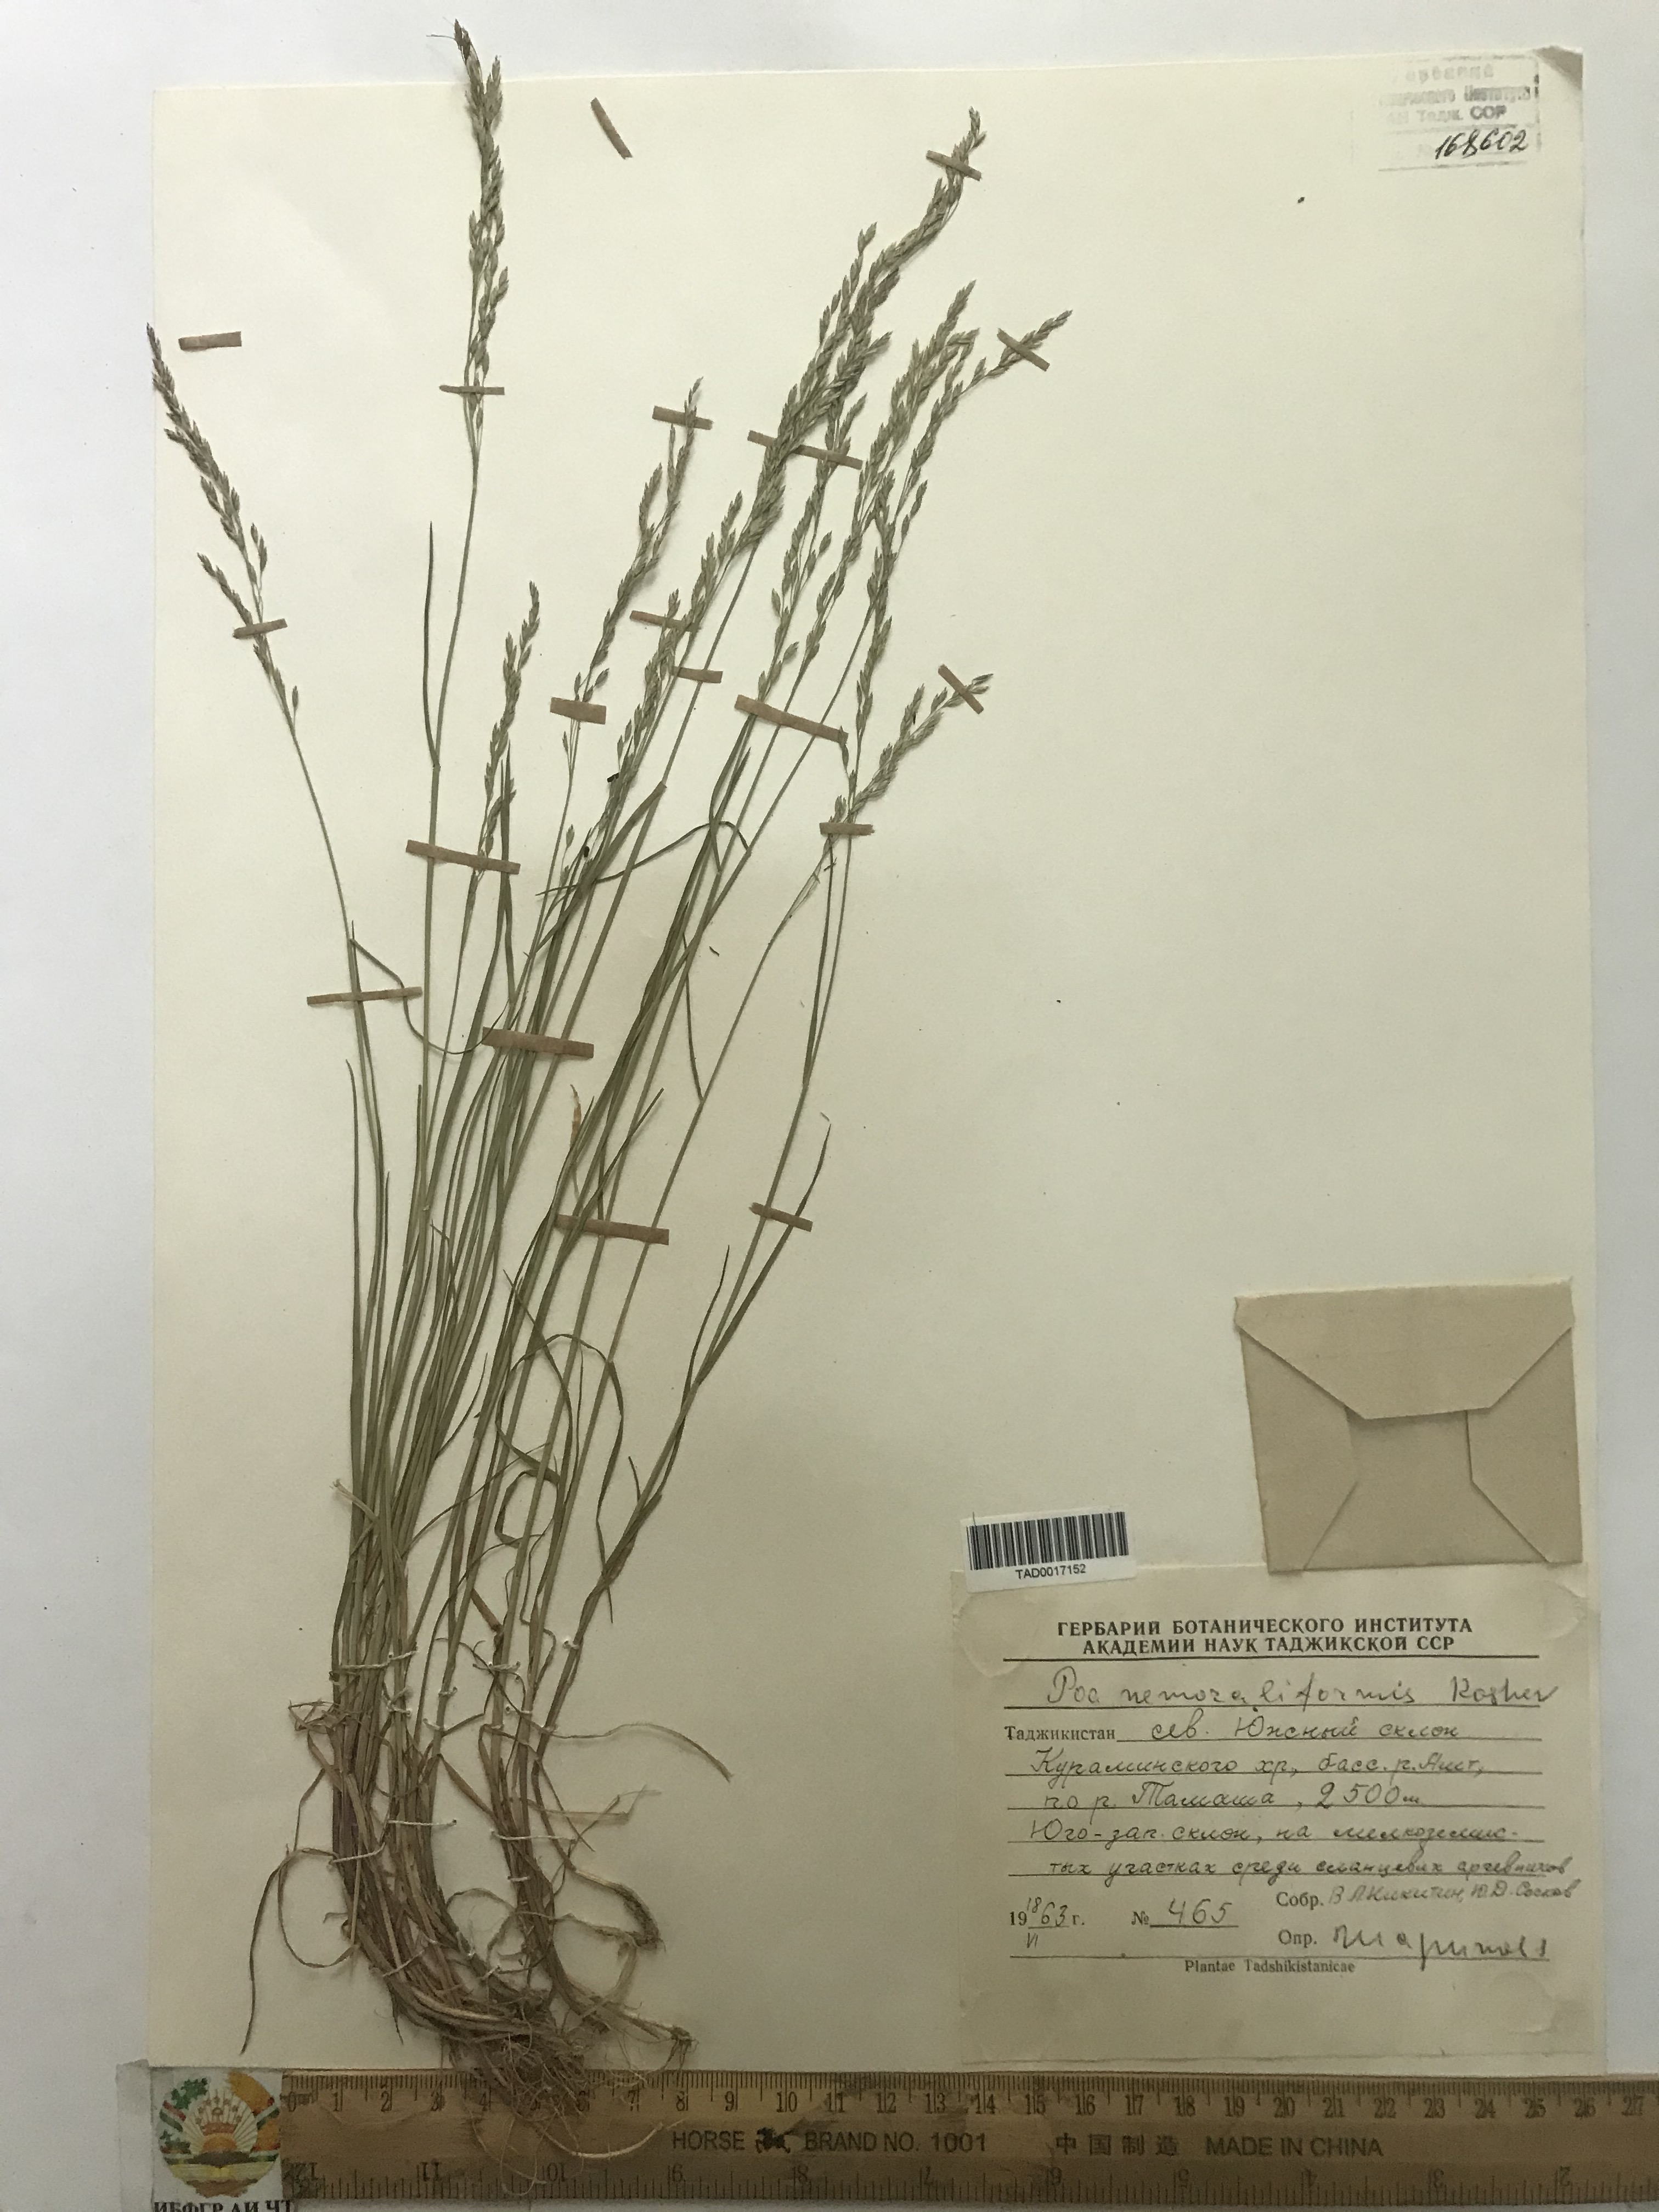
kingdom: Plantae
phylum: Tracheophyta
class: Liliopsida
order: Poales
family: Poaceae
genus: Poa
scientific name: Poa urssulensis
